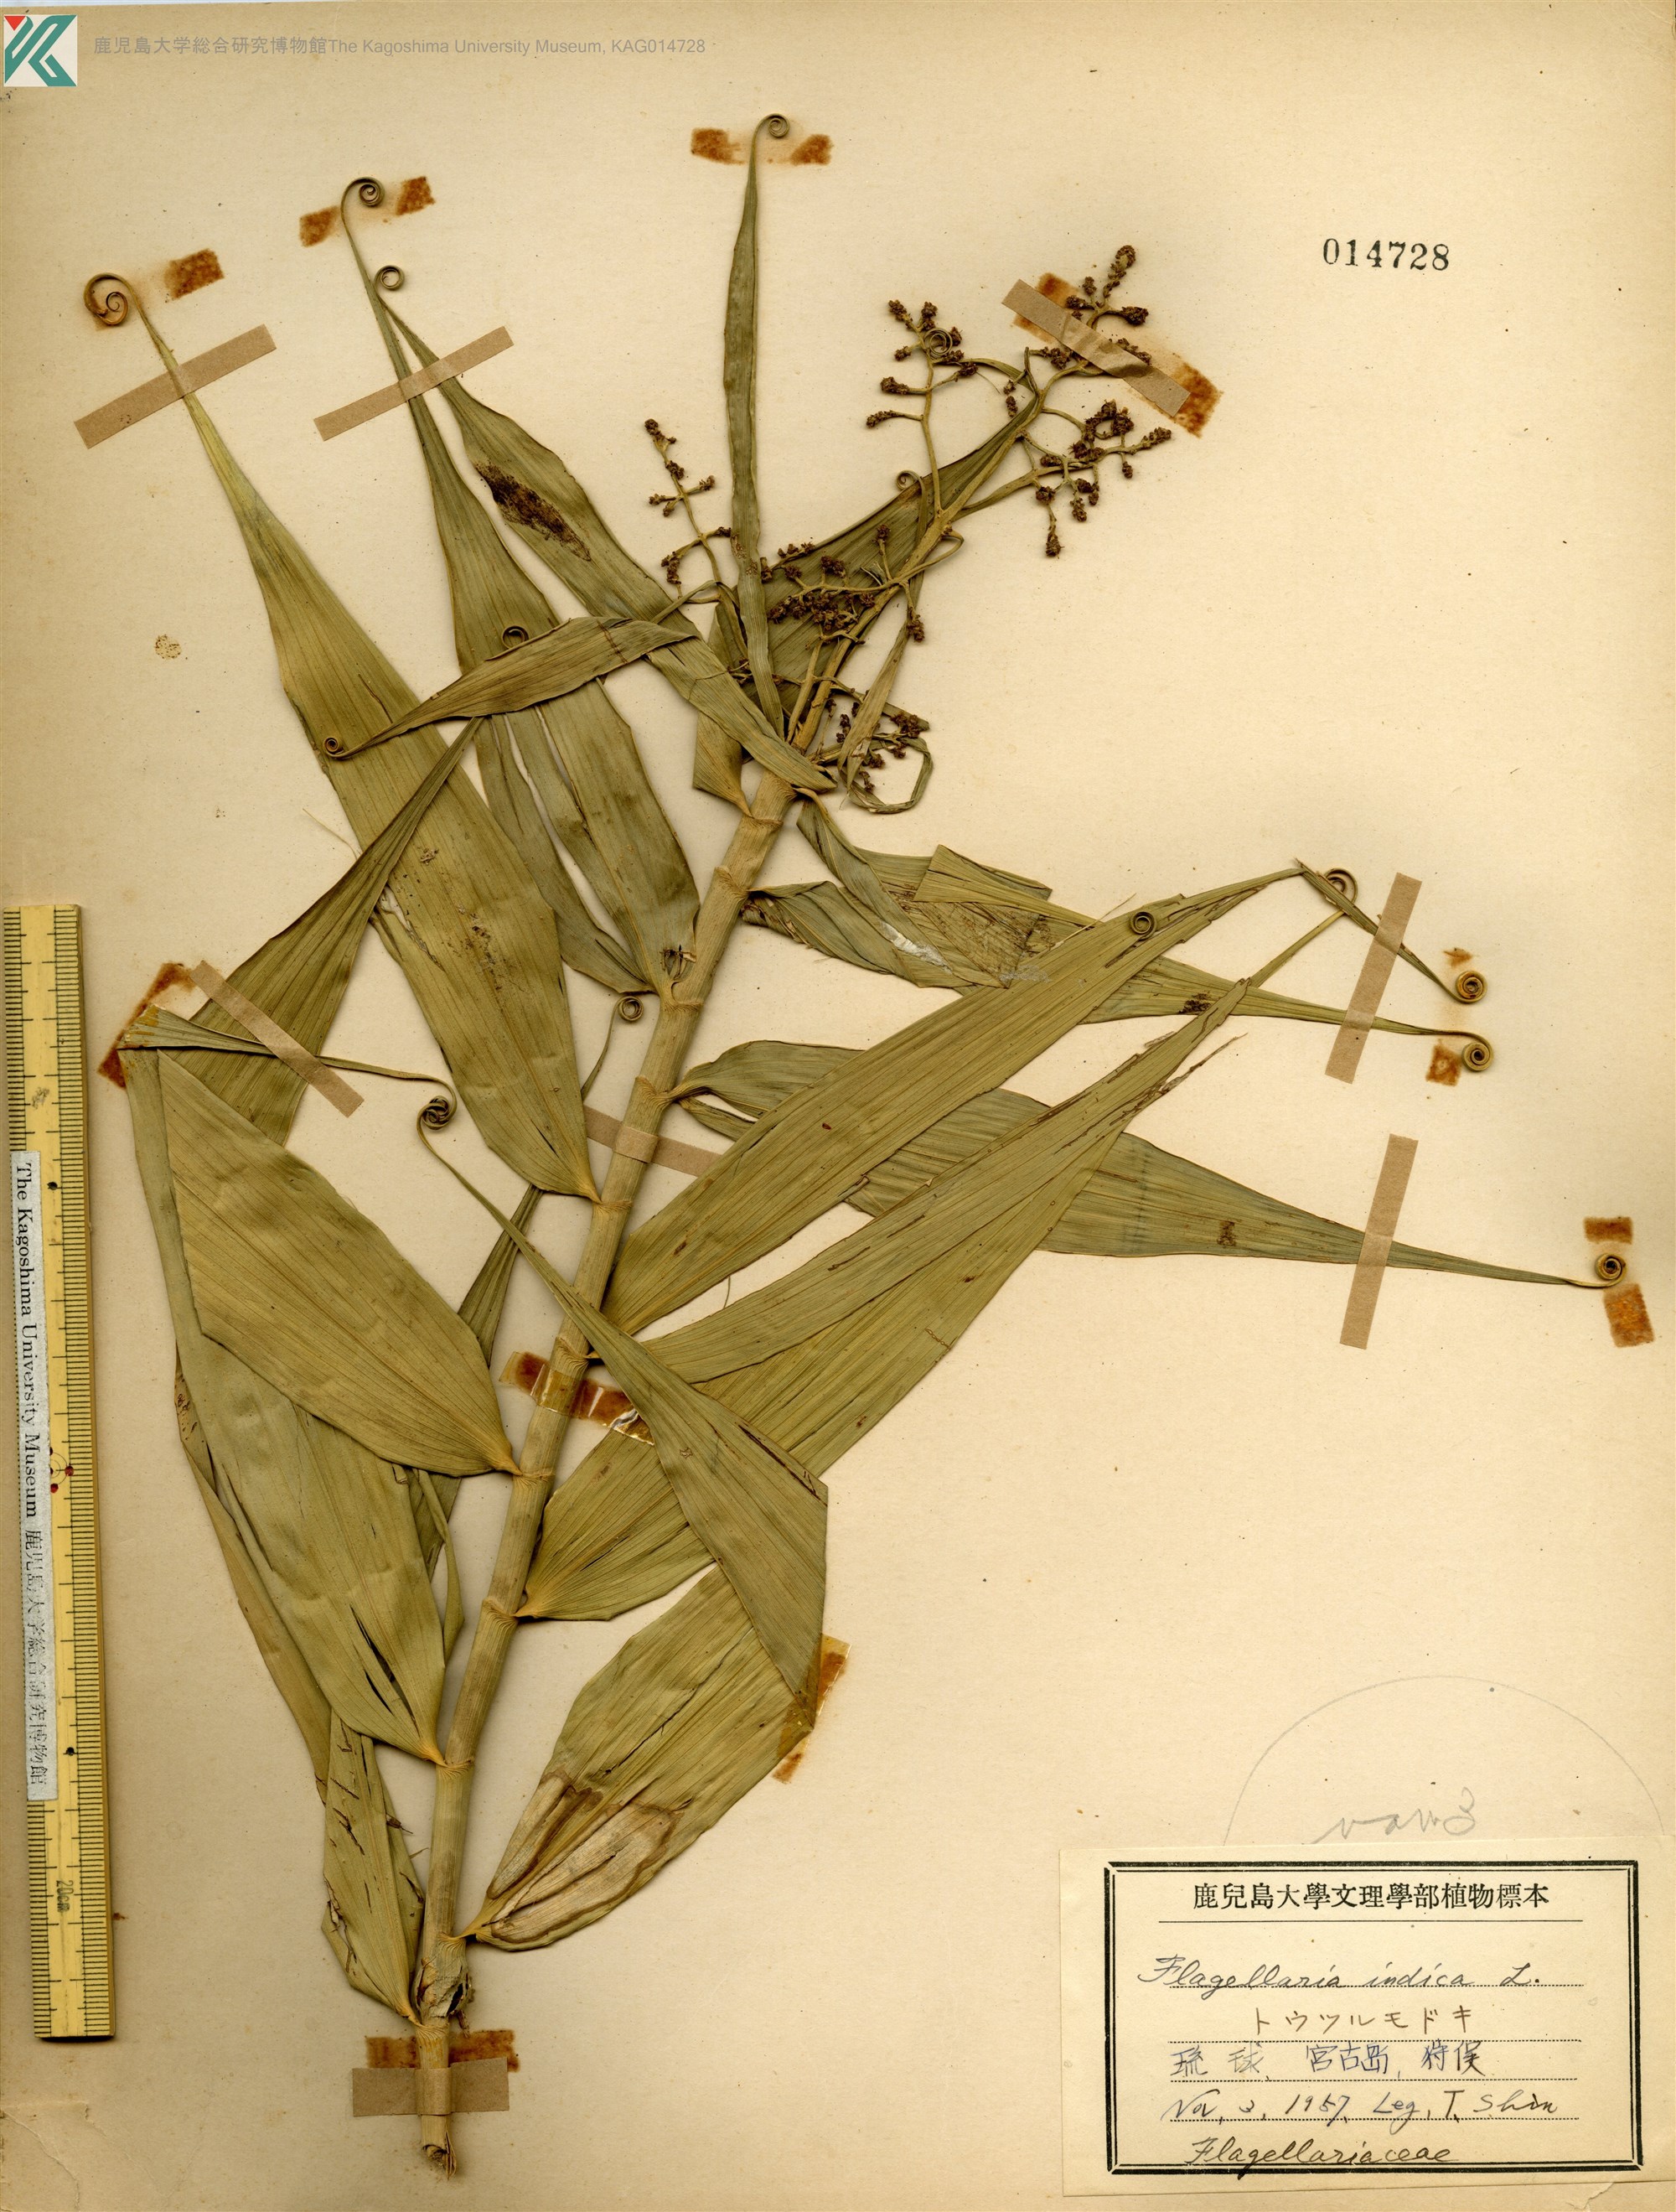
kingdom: Plantae
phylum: Tracheophyta
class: Liliopsida
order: Poales
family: Flagellariaceae
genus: Flagellaria
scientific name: Flagellaria indica
